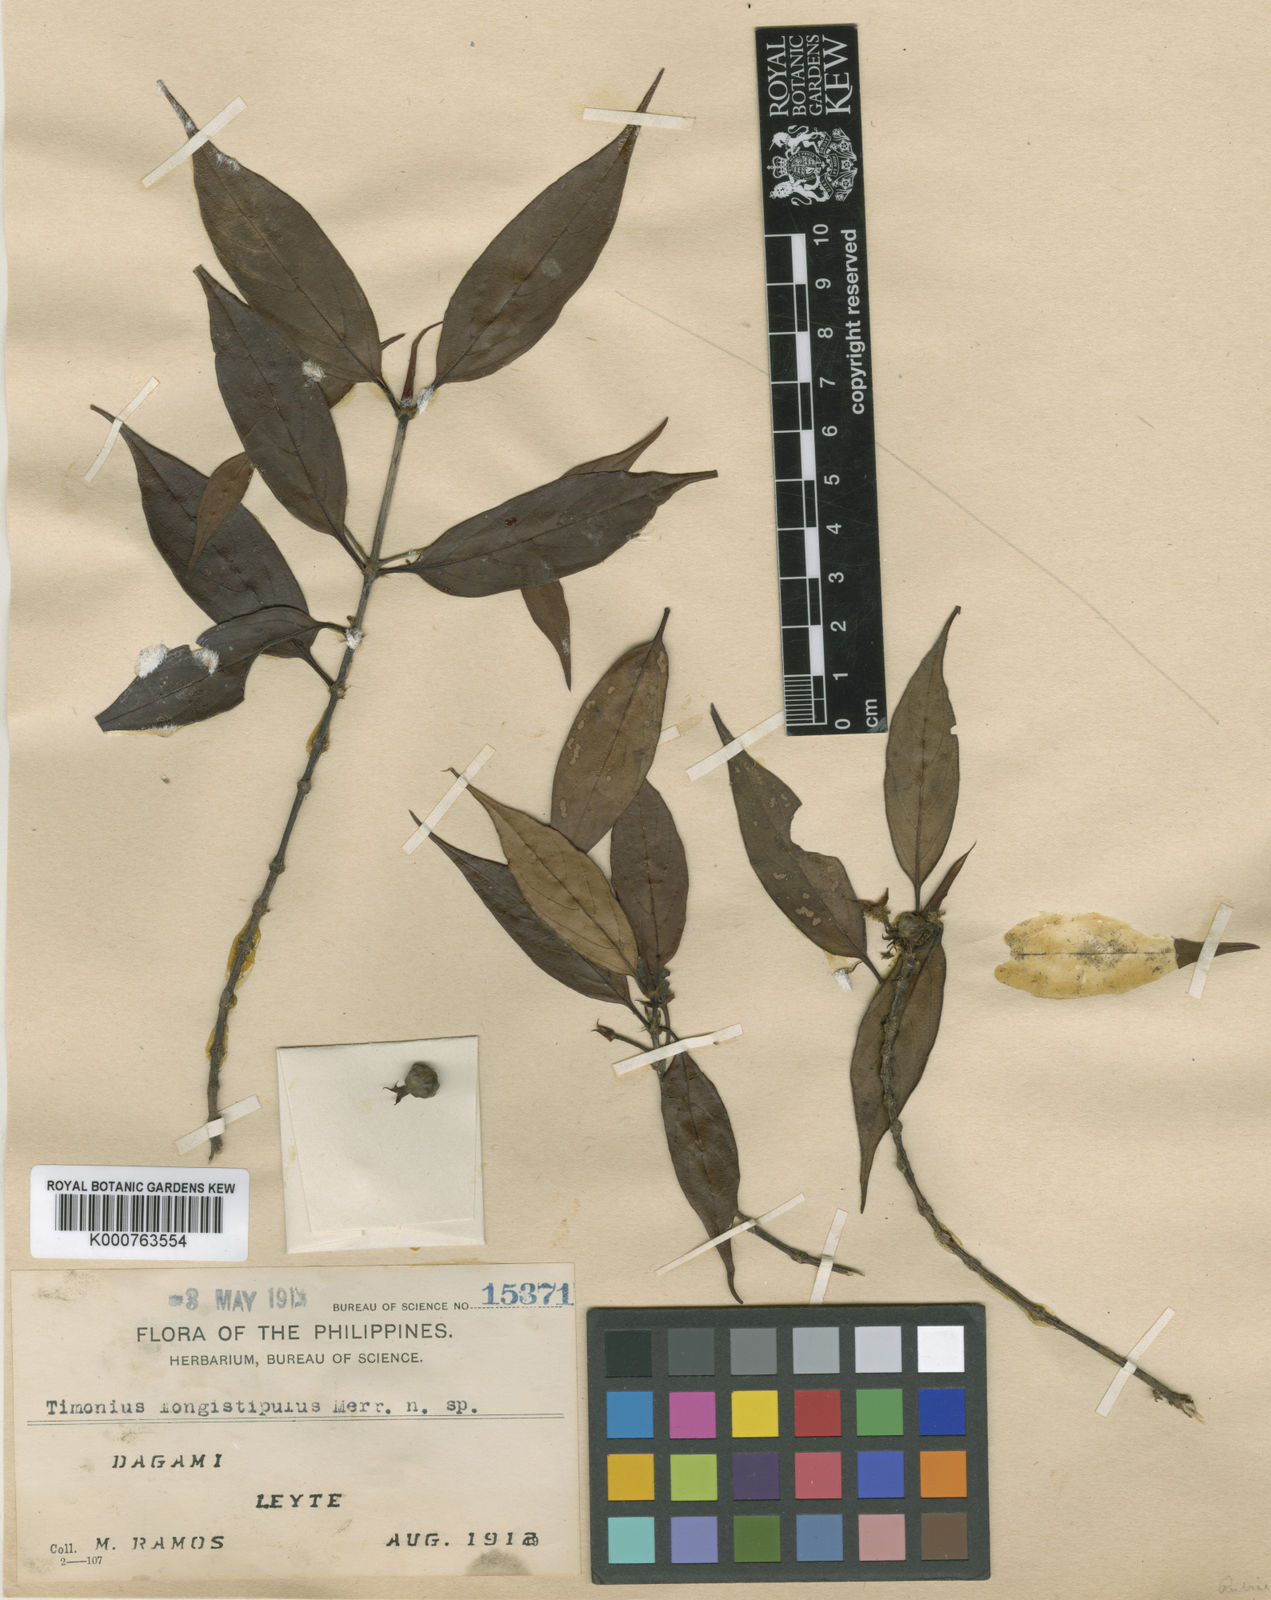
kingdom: Plantae
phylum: Tracheophyta
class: Magnoliopsida
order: Gentianales
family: Rubiaceae
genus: Timonius
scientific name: Timonius longistipulus
